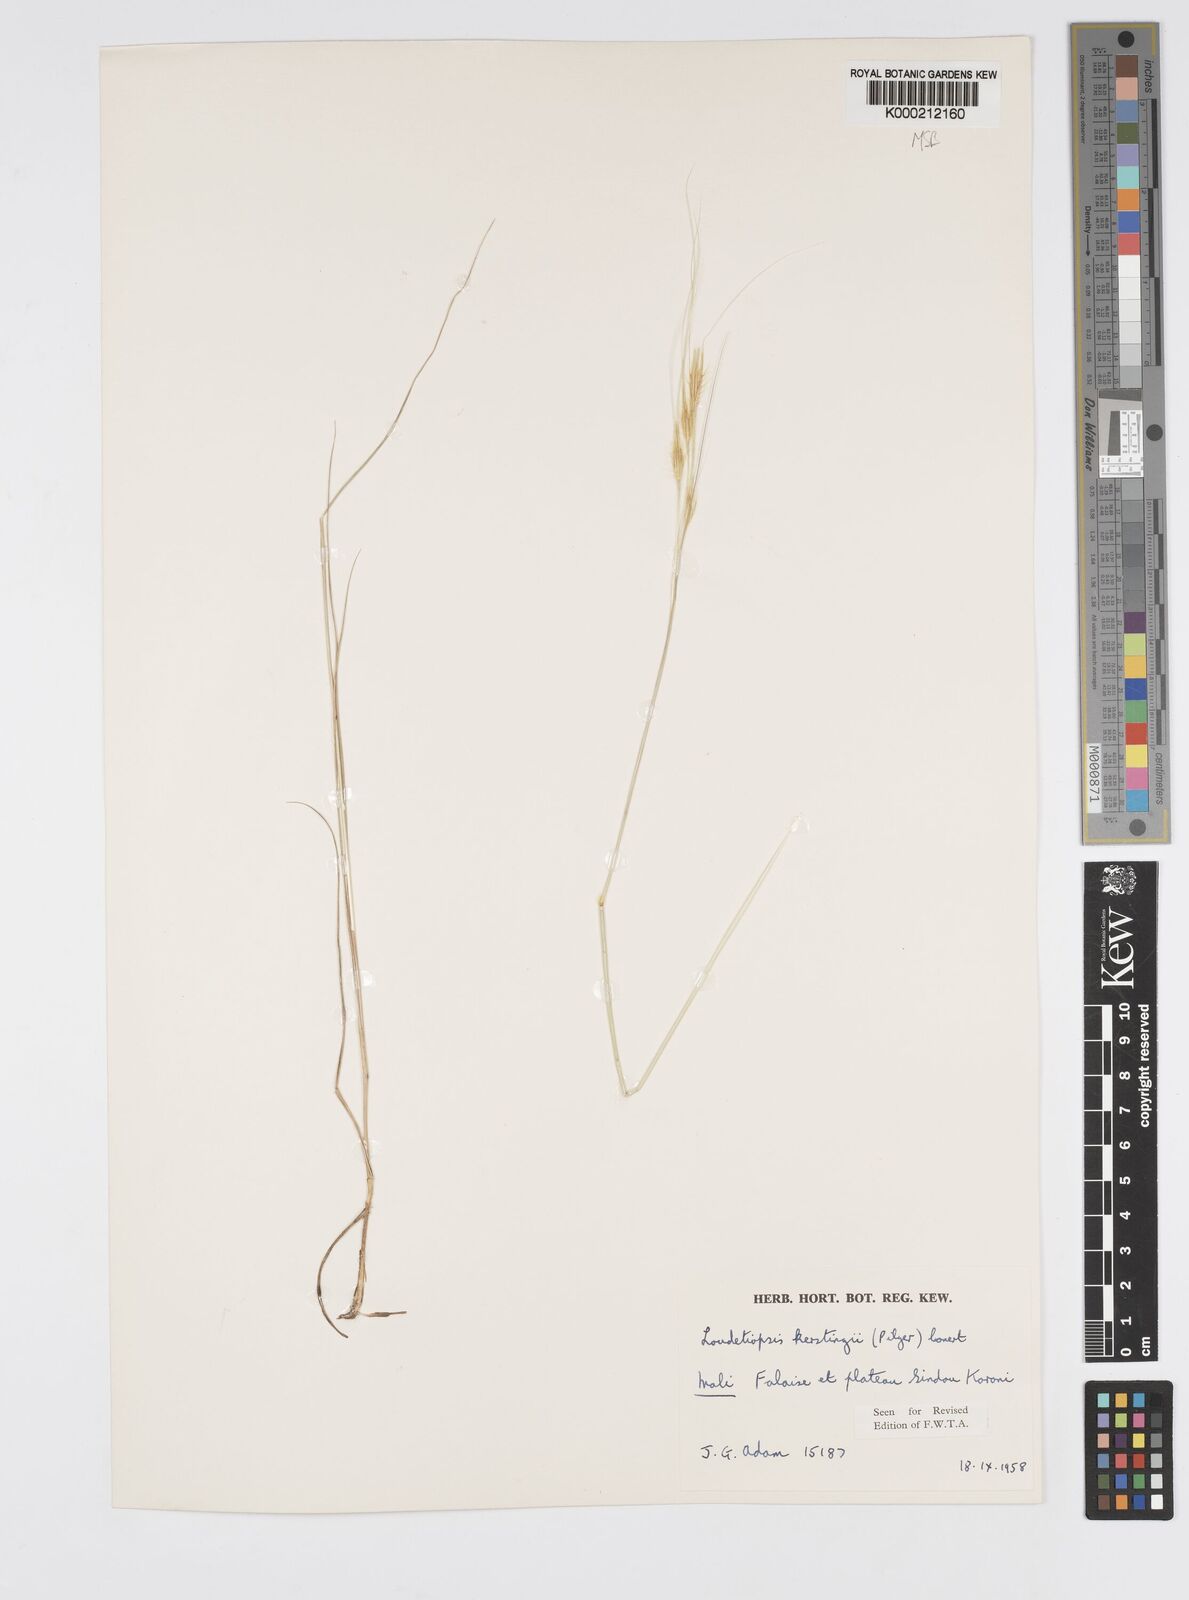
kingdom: Plantae
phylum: Tracheophyta
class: Liliopsida
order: Poales
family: Poaceae
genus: Loudetiopsis
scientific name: Loudetiopsis kerstingii
